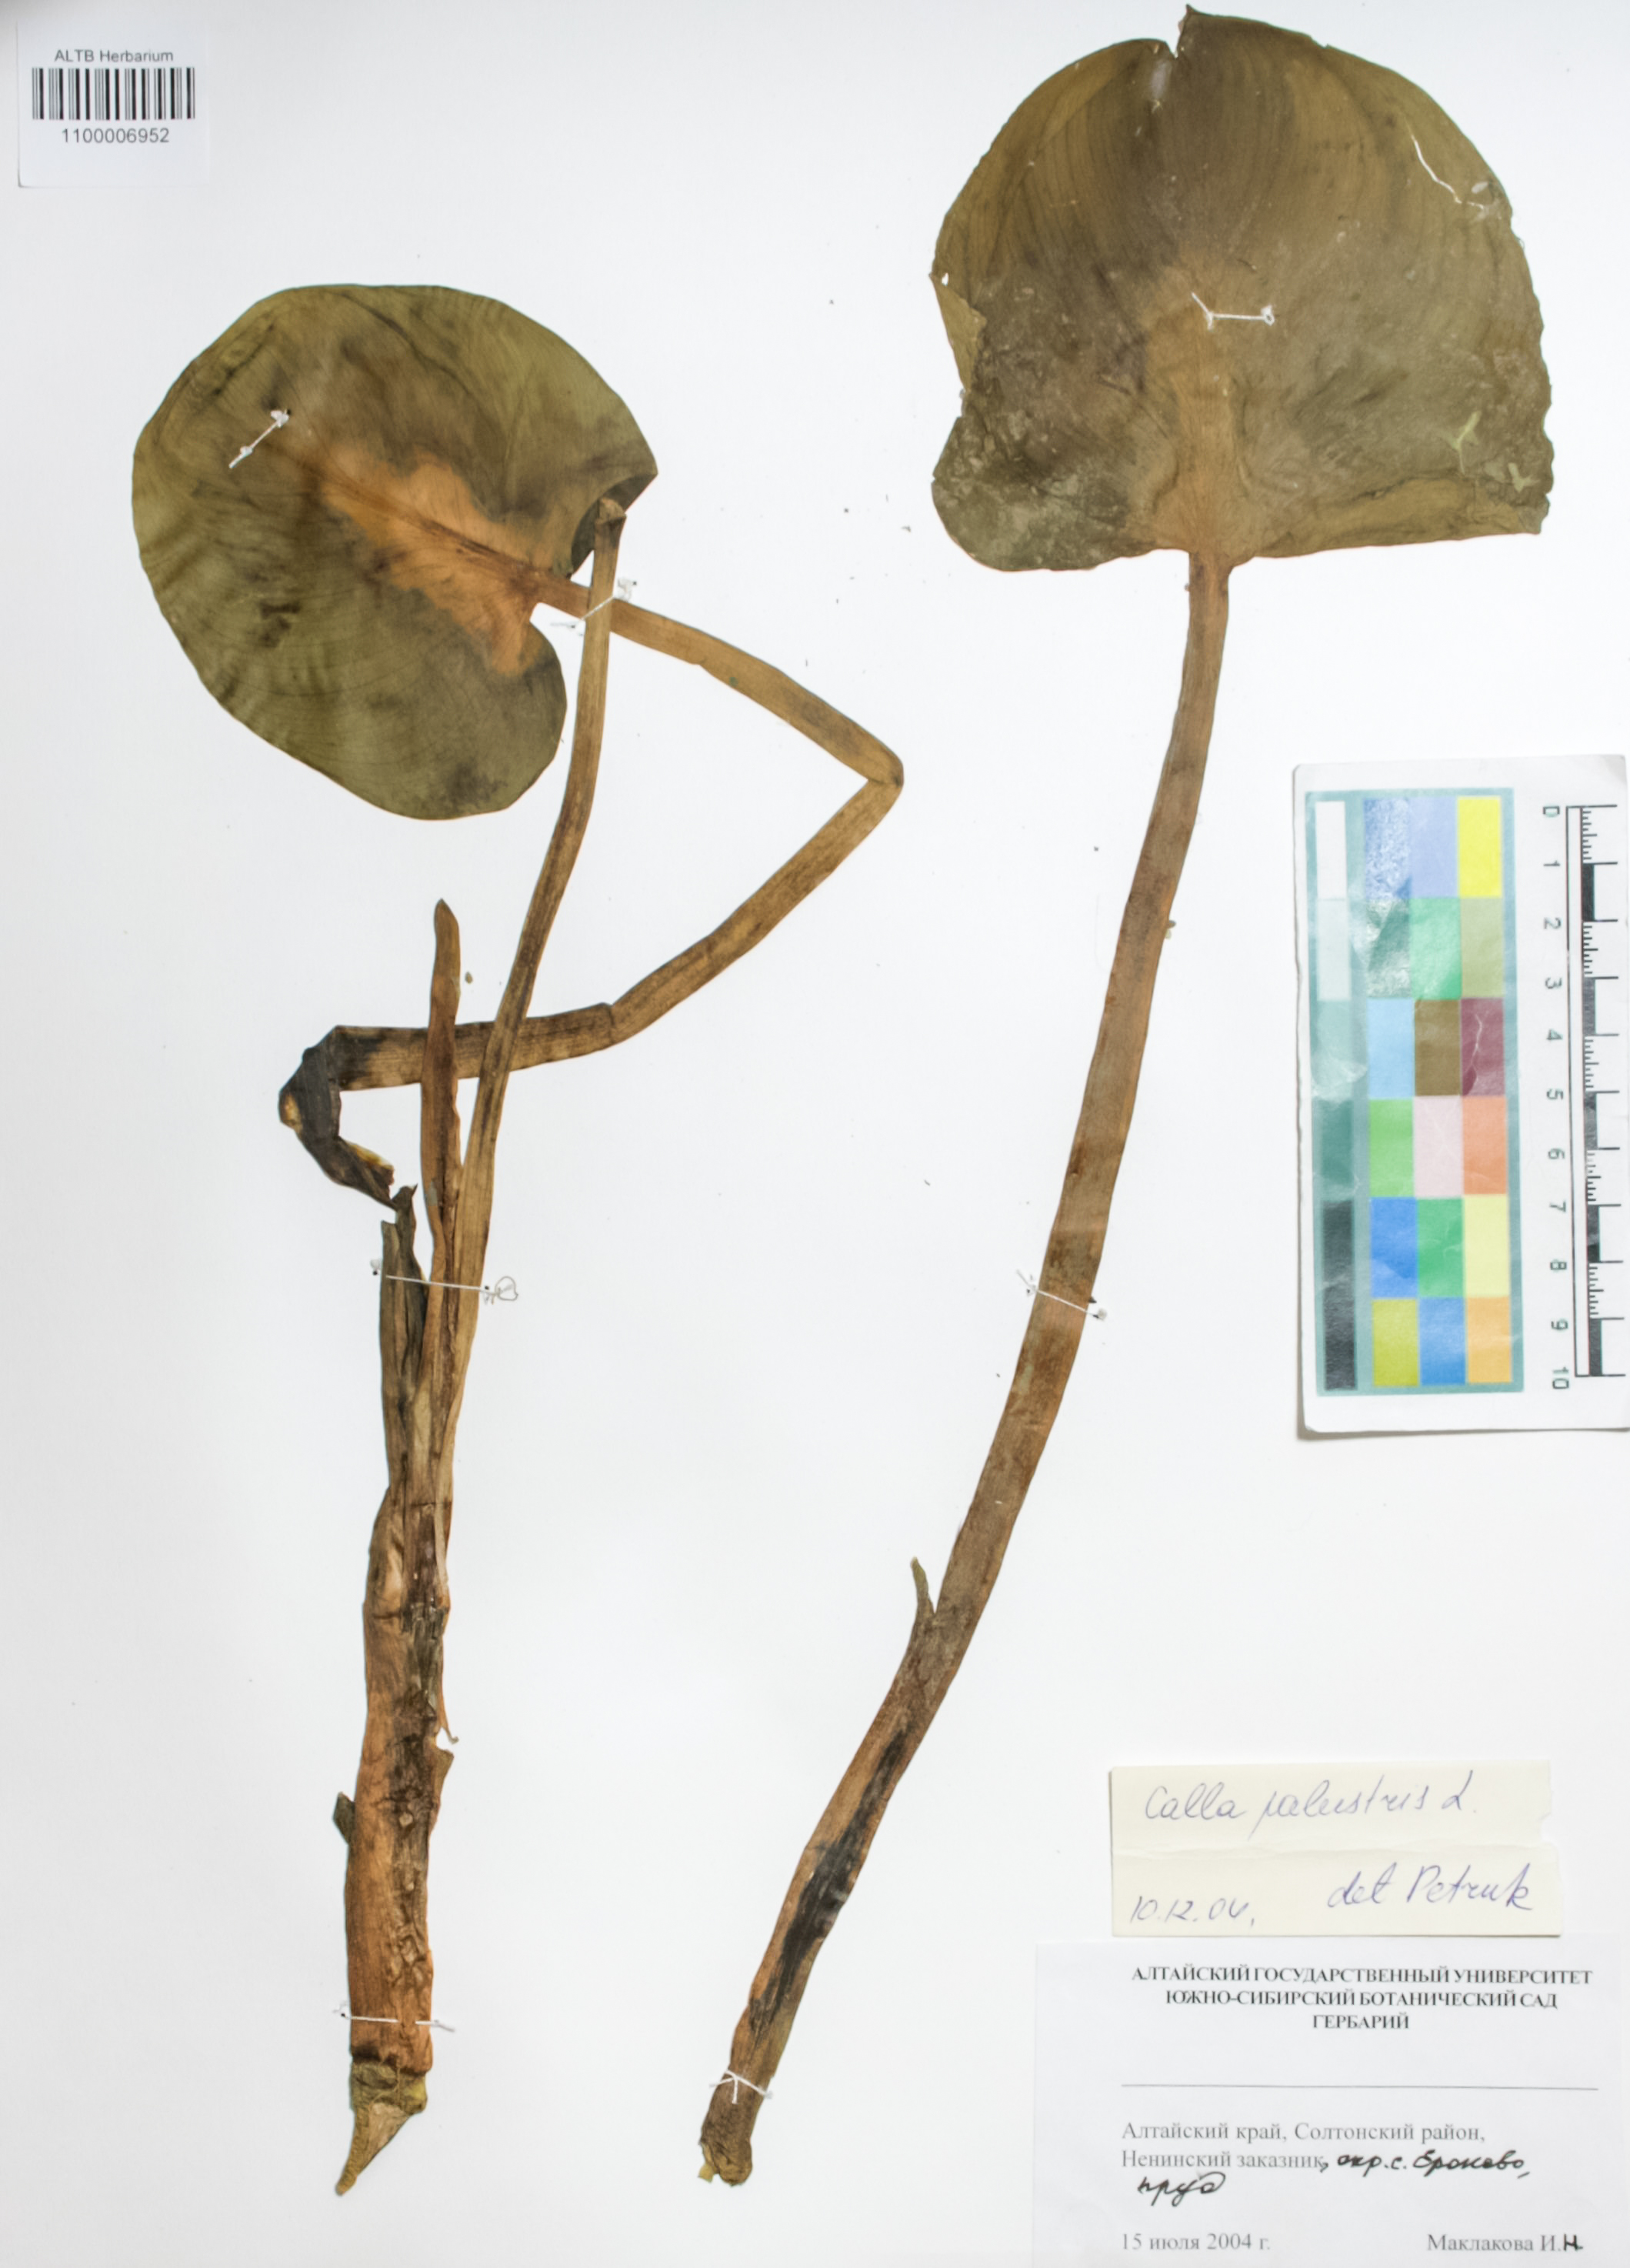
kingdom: Plantae
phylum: Tracheophyta
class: Liliopsida
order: Alismatales
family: Araceae
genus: Calla
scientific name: Calla palustris
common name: Bog arum
